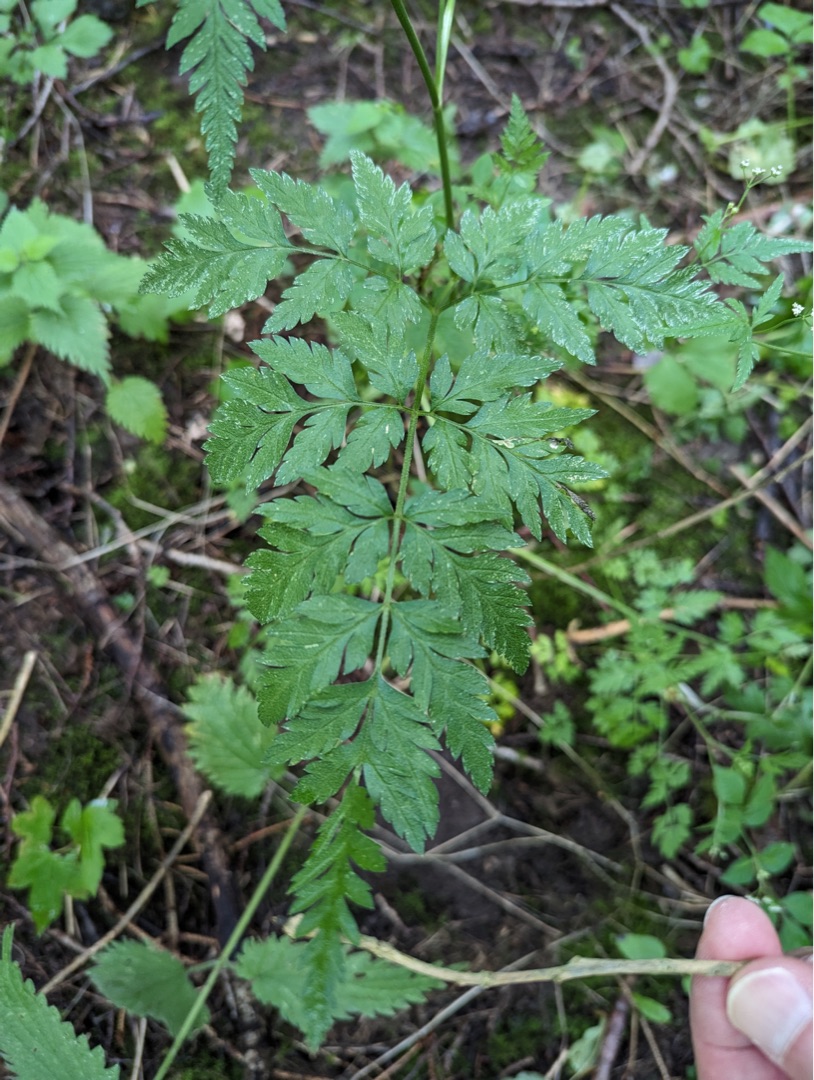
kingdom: Plantae
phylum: Tracheophyta
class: Magnoliopsida
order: Apiales
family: Apiaceae
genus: Torilis
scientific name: Torilis japonica
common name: Hvas randfrø
